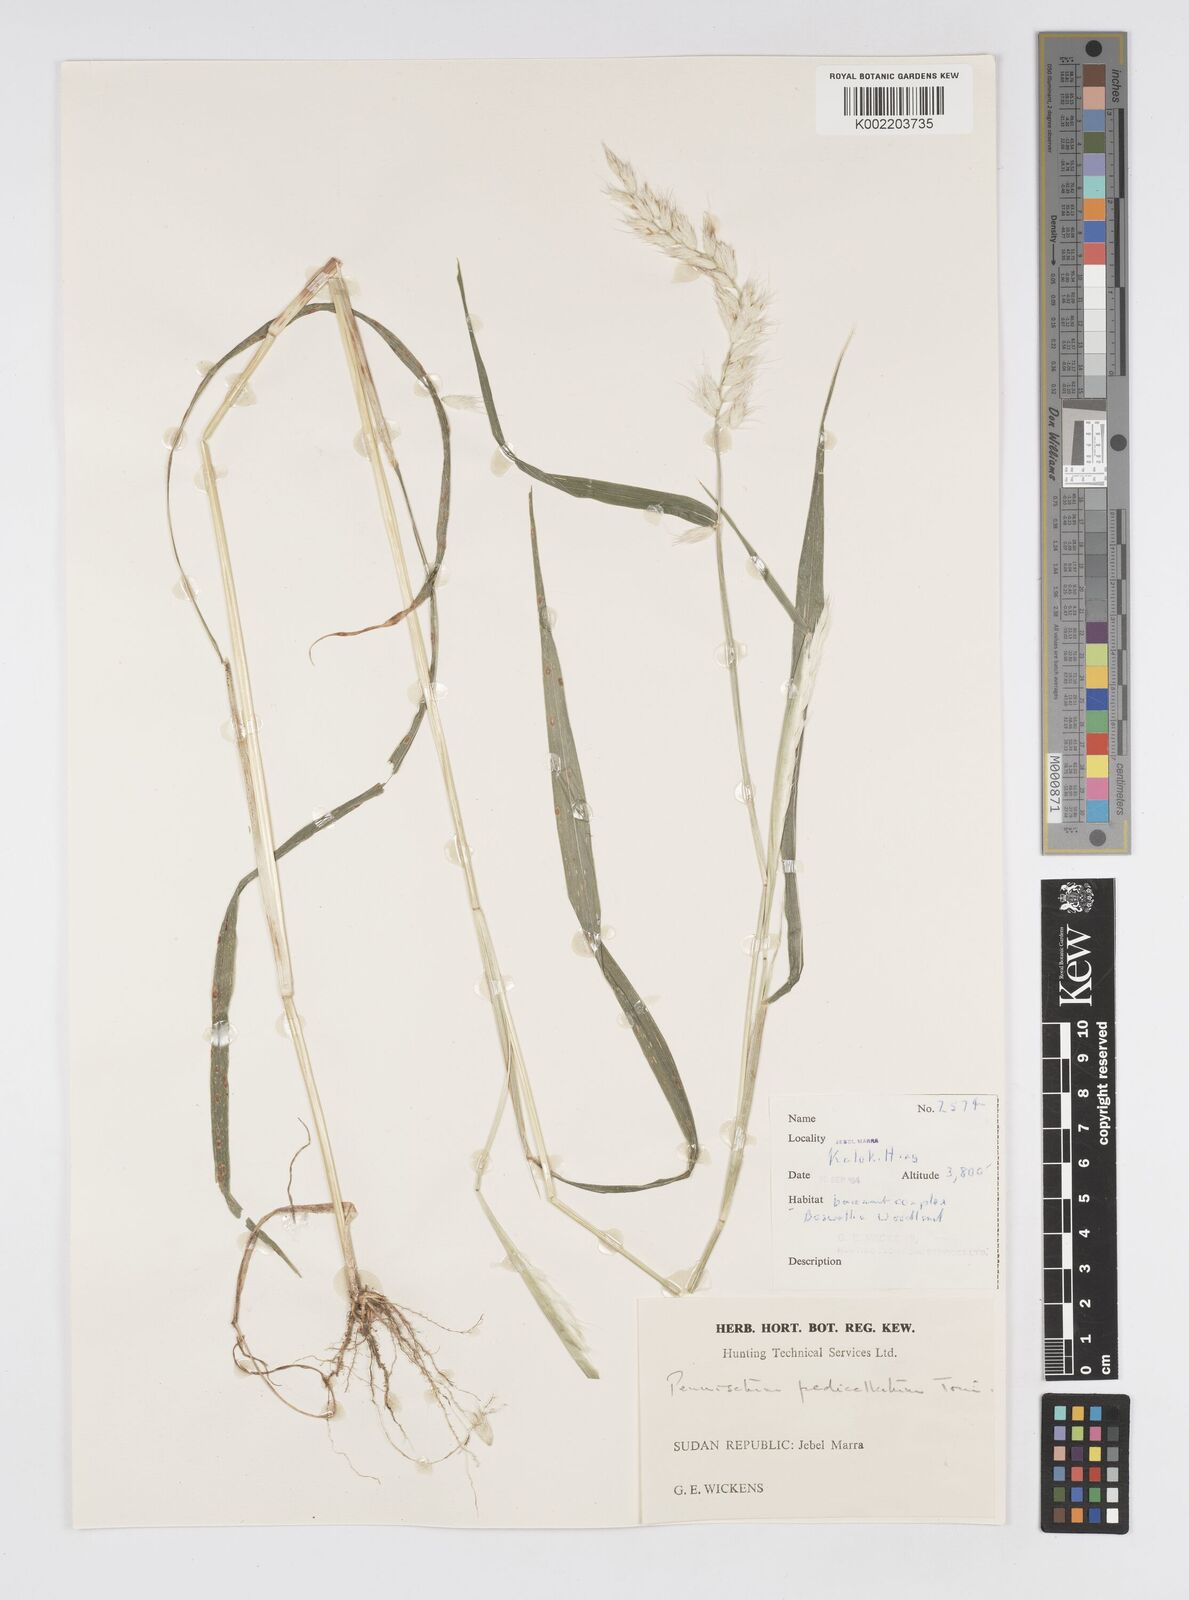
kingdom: Plantae
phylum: Tracheophyta
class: Liliopsida
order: Poales
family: Poaceae
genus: Cenchrus
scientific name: Cenchrus pedicellatus
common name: Hairy fountain grass
